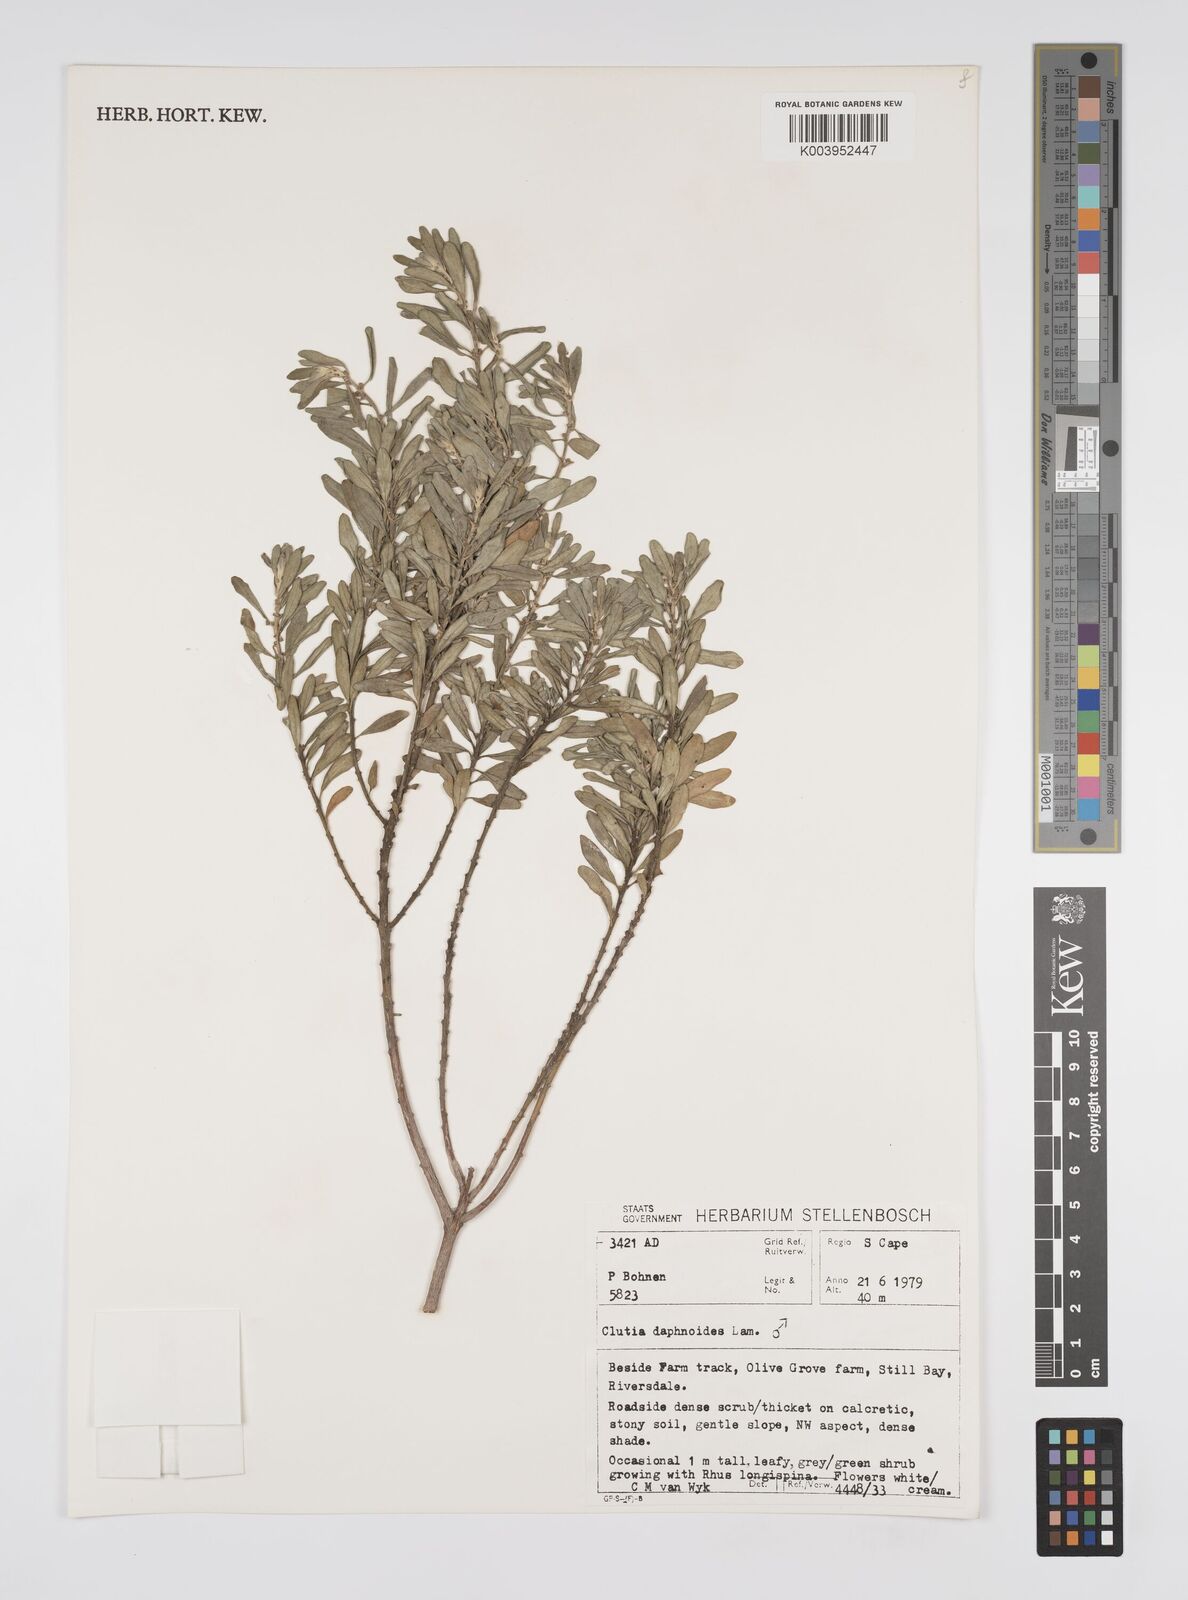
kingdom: Plantae
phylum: Tracheophyta
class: Magnoliopsida
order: Malpighiales
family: Peraceae
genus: Clutia
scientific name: Clutia daphnoides
